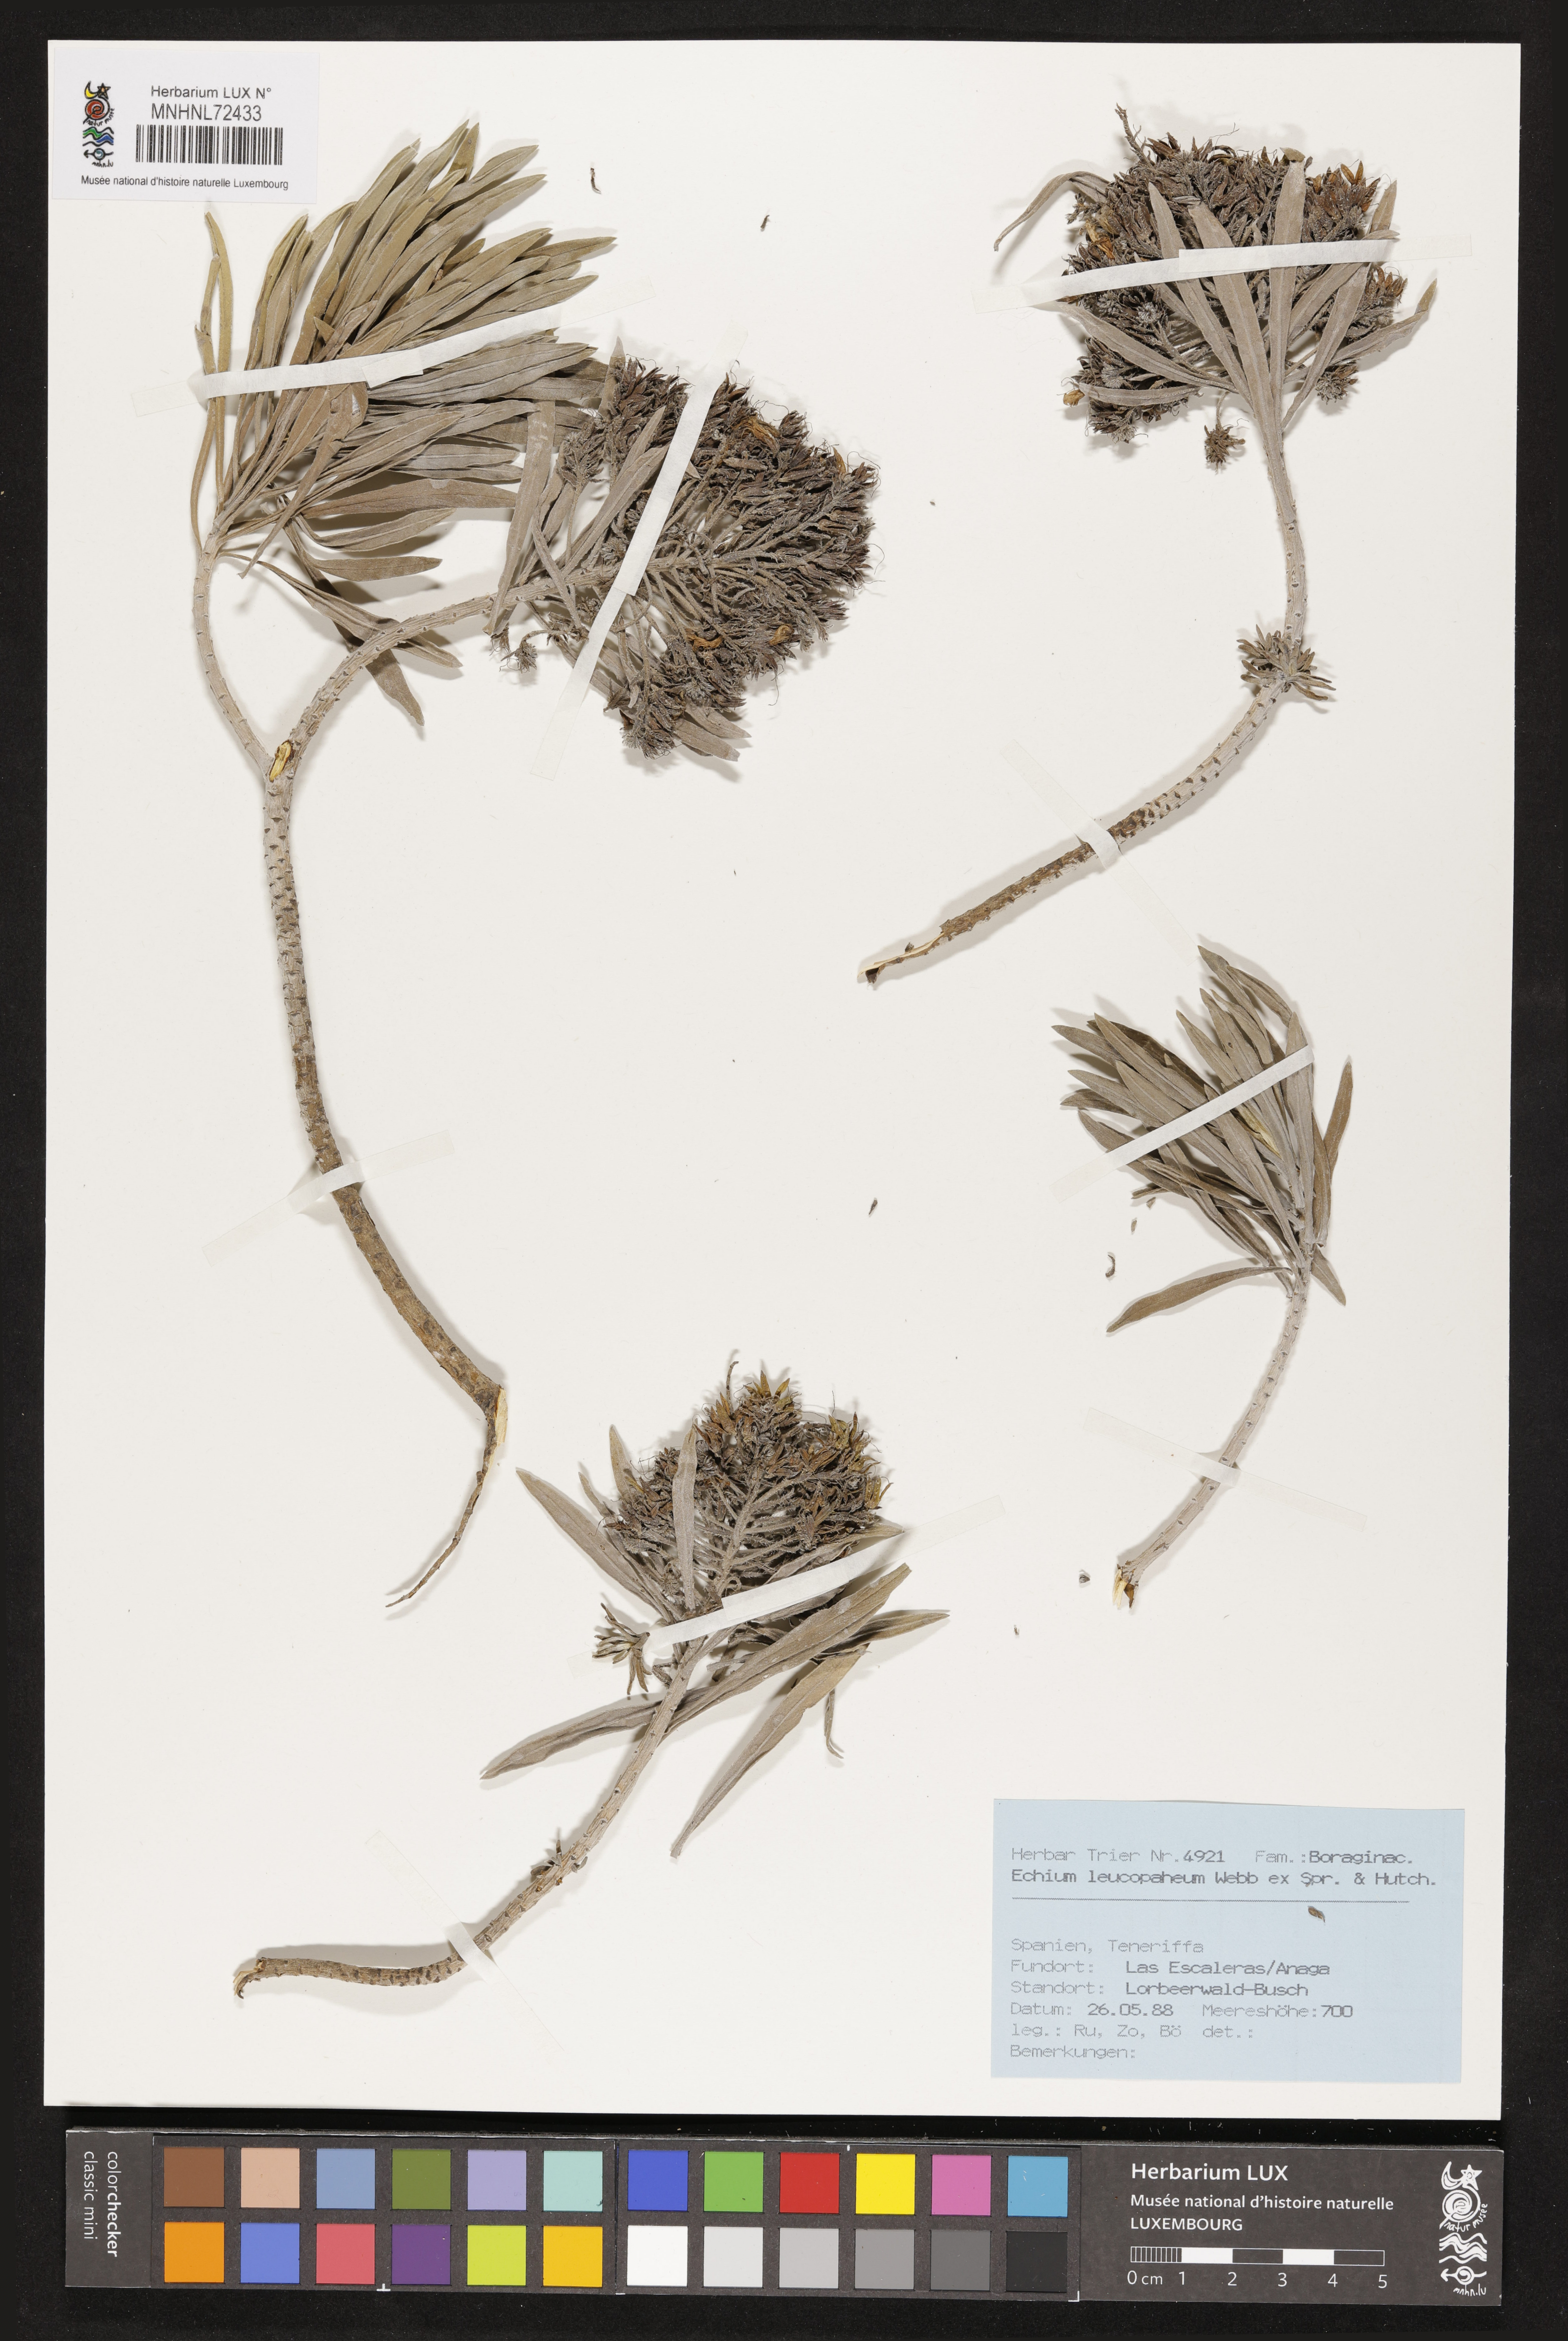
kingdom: Plantae
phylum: Tracheophyta
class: Magnoliopsida
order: Boraginales
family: Boraginaceae
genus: Echium
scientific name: Echium leucophaeum
